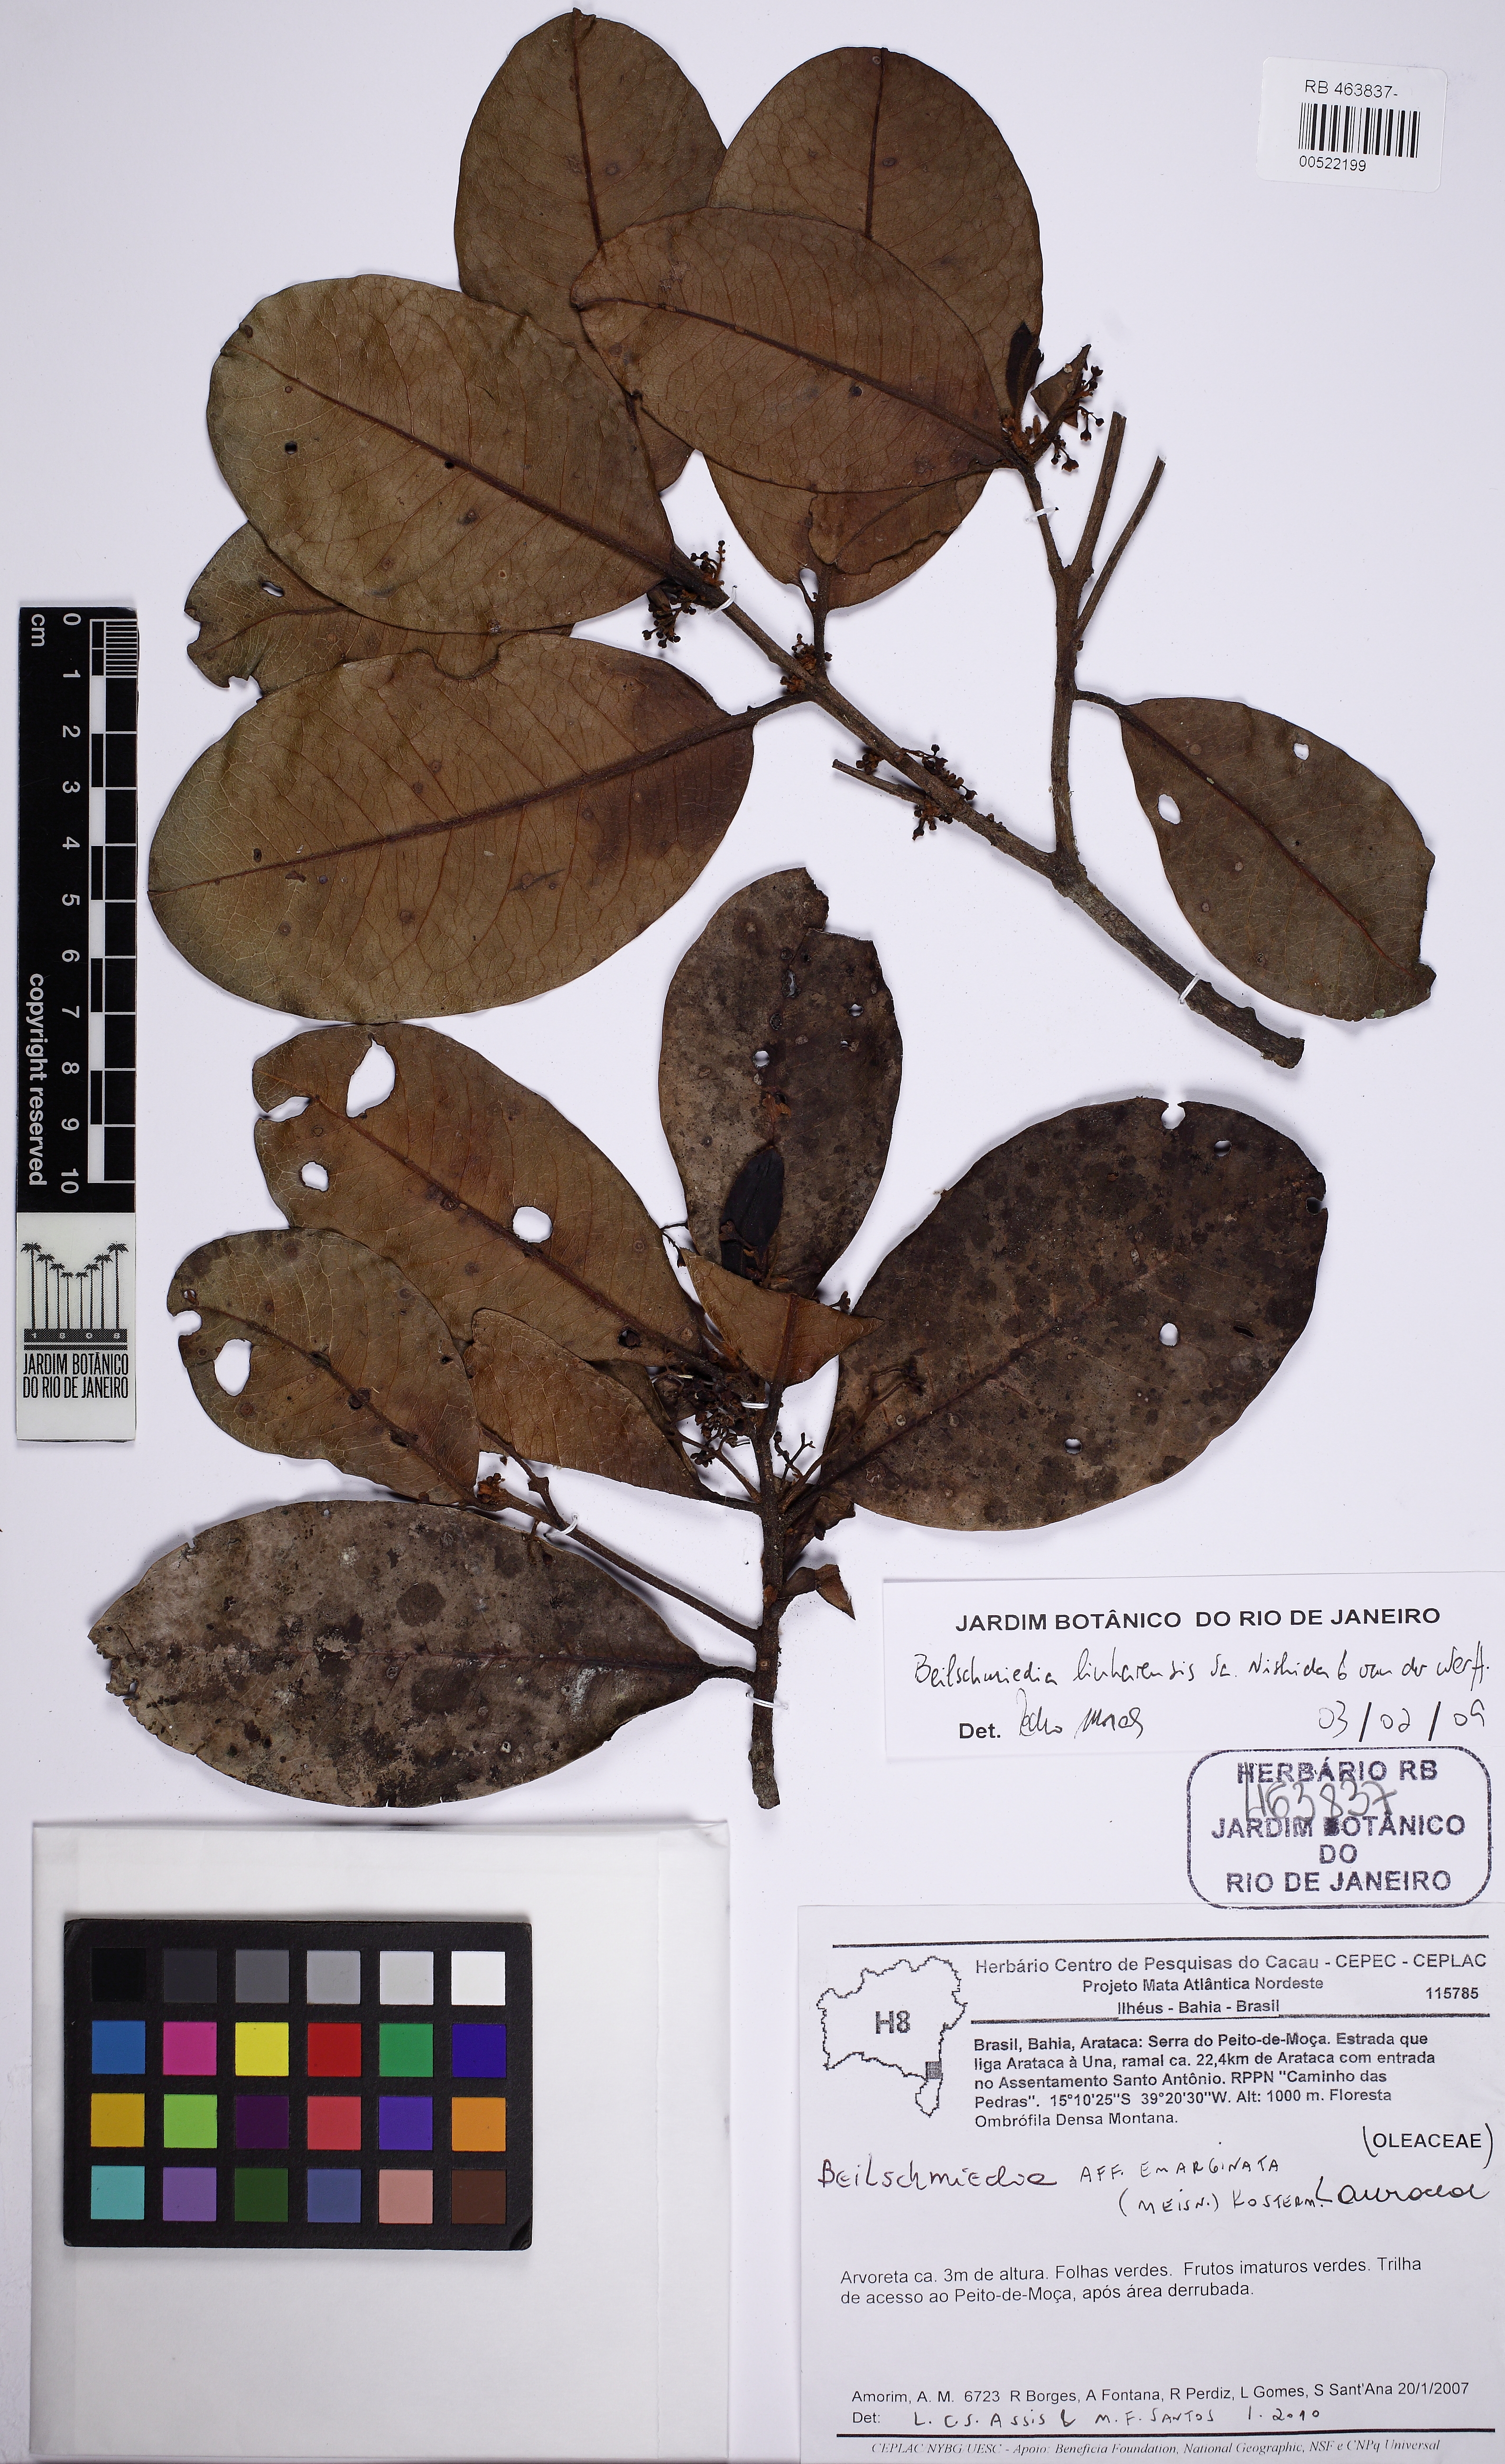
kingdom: Plantae
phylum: Tracheophyta
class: Magnoliopsida
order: Laurales
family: Lauraceae
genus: Beilschmiedia
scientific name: Beilschmiedia emarginata
